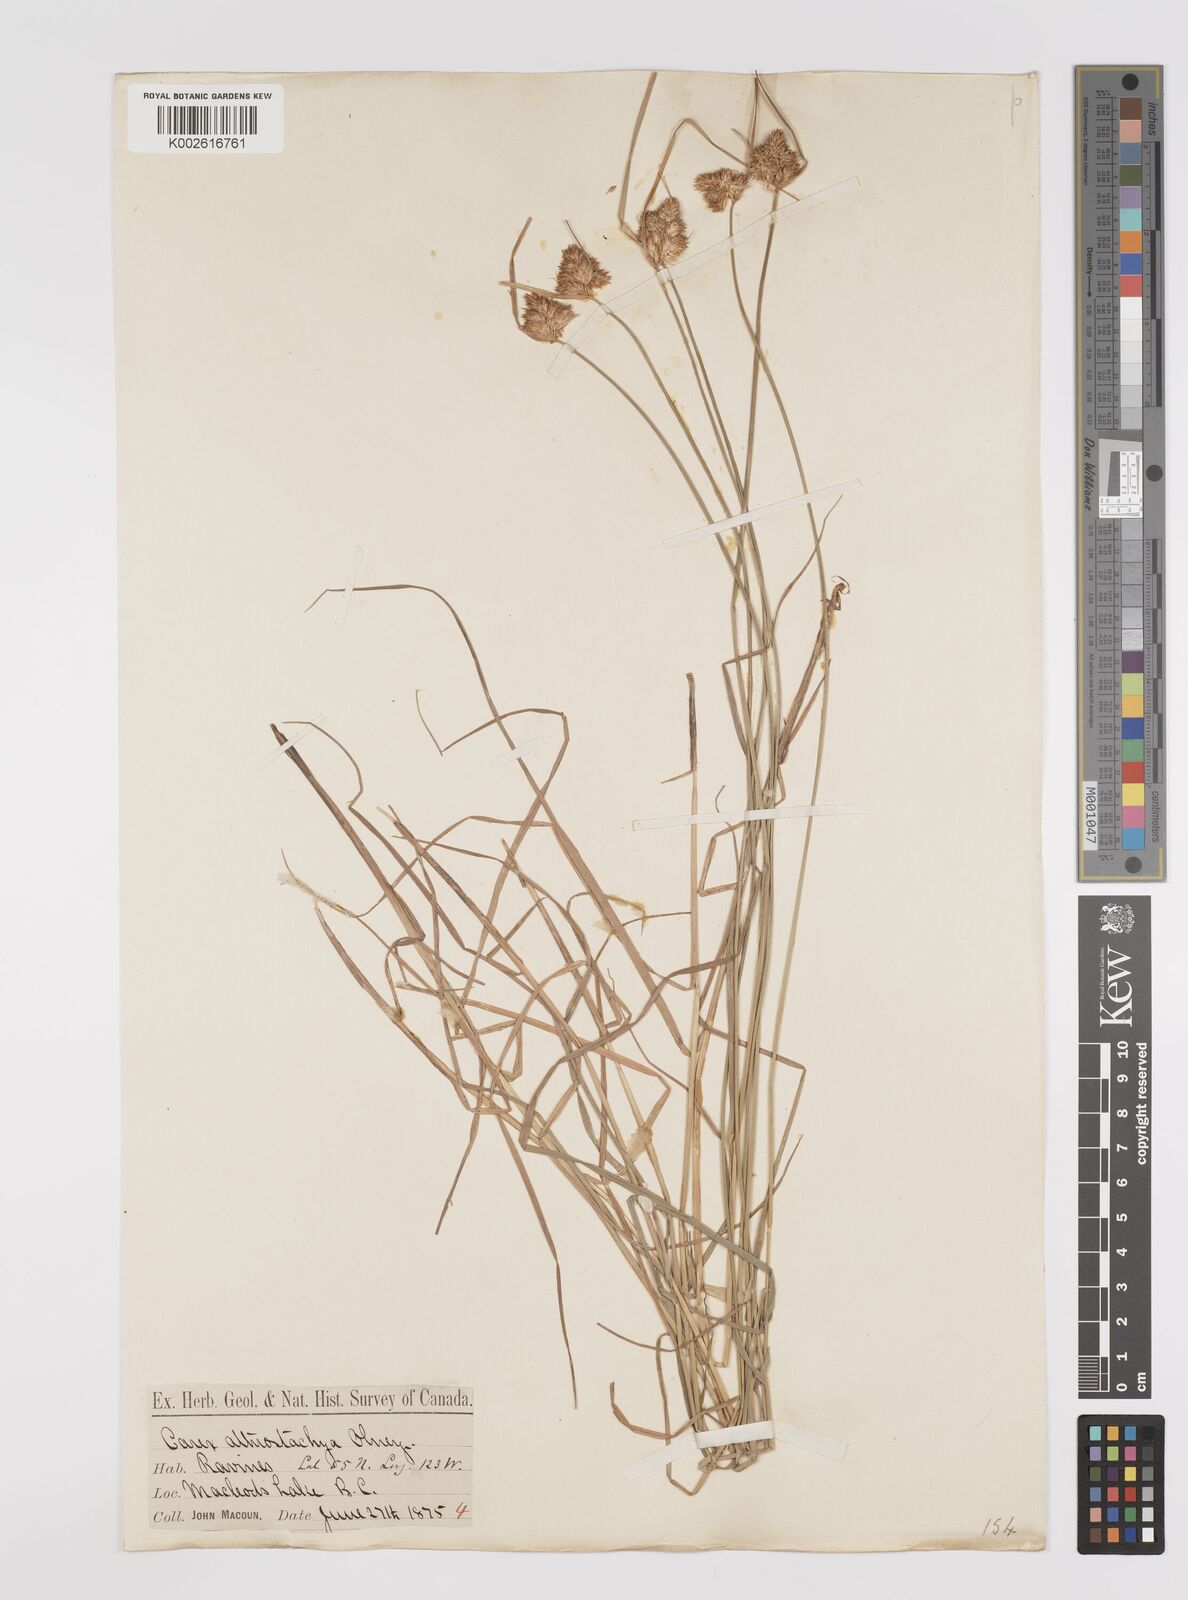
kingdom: Plantae
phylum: Tracheophyta
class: Liliopsida
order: Poales
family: Cyperaceae
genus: Carex
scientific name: Carex athrostachya
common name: Slenderbeak sedge
